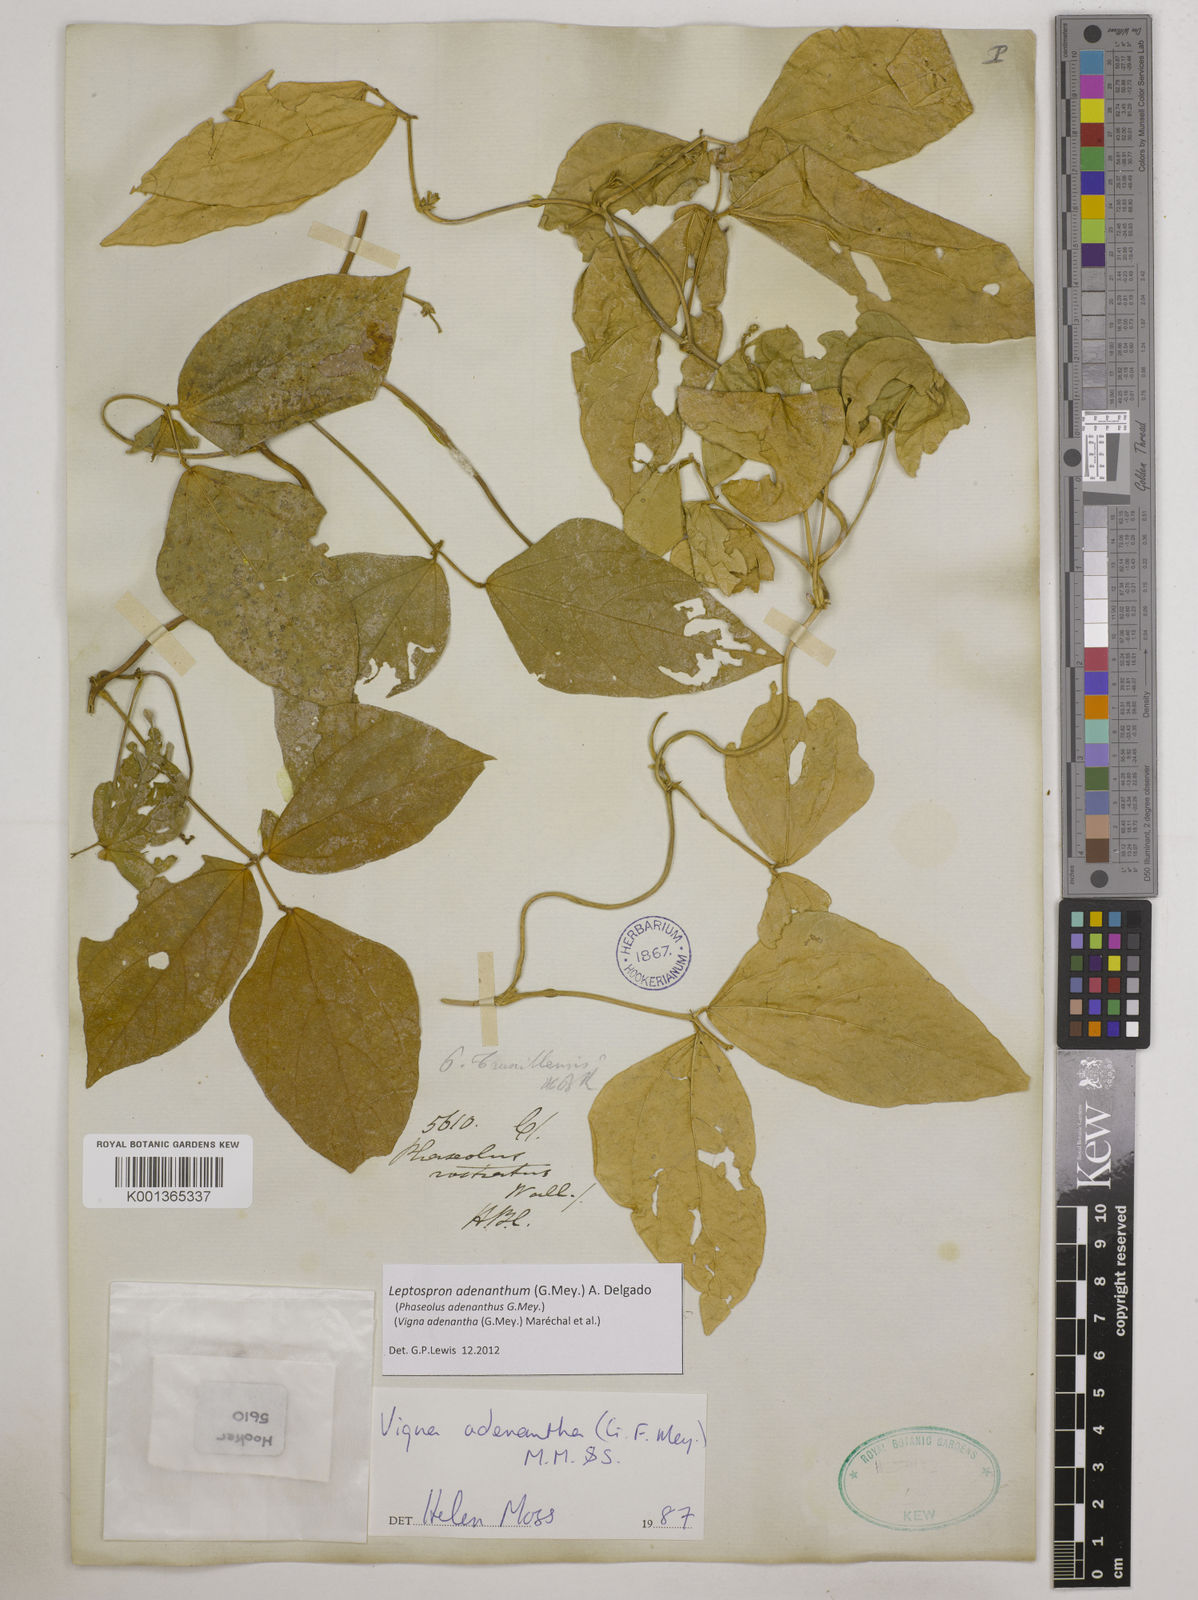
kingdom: Plantae
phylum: Tracheophyta
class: Magnoliopsida
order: Fabales
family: Fabaceae
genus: Leptospron
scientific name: Leptospron adenanthum
